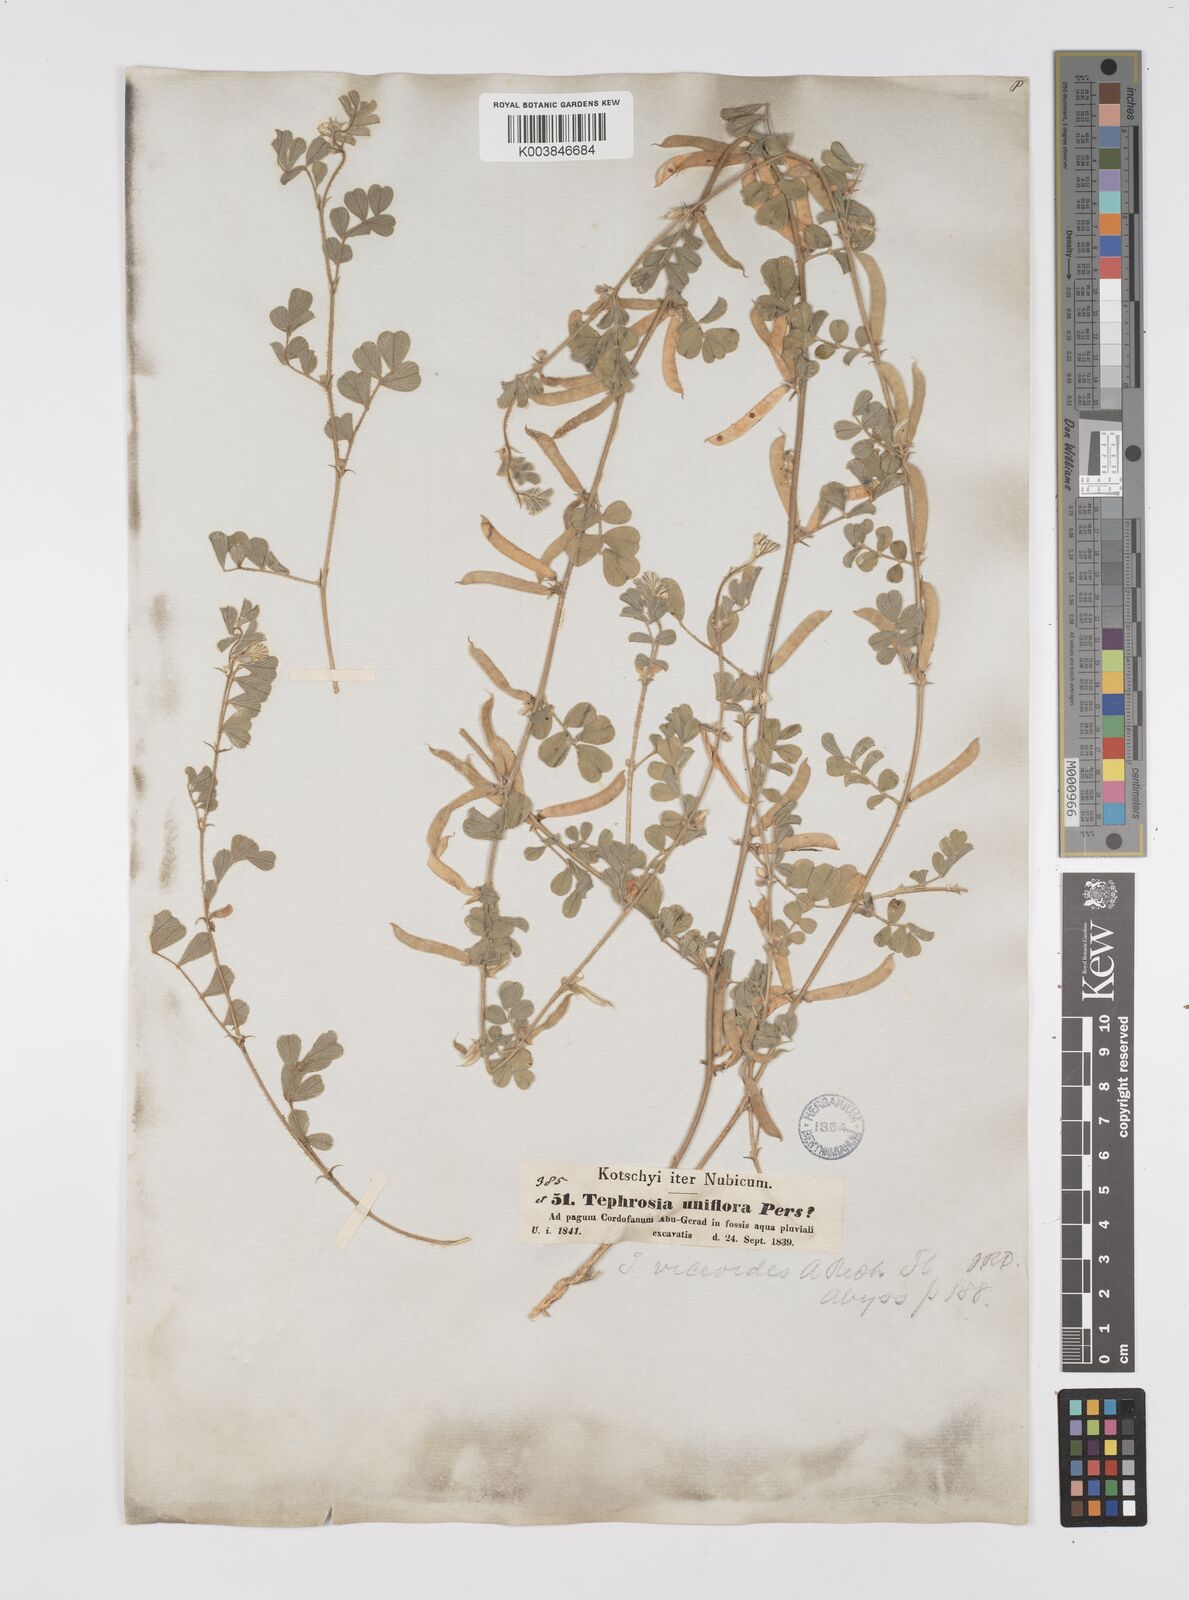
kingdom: Plantae
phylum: Tracheophyta
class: Magnoliopsida
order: Fabales
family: Fabaceae
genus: Tephrosia
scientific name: Tephrosia uniflora
